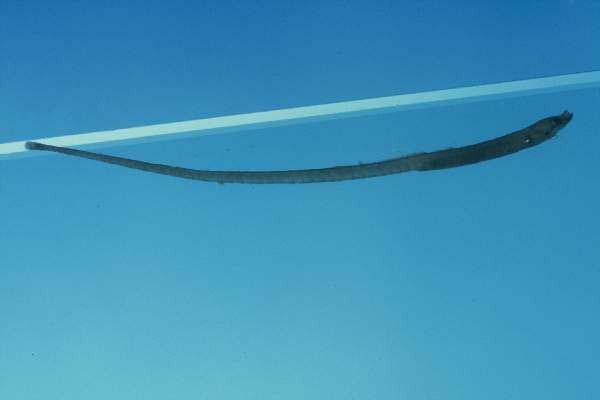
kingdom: Animalia
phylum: Chordata
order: Syngnathiformes
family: Syngnathidae
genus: Nannocampus
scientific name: Nannocampus elegans
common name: Elegant pipefish
